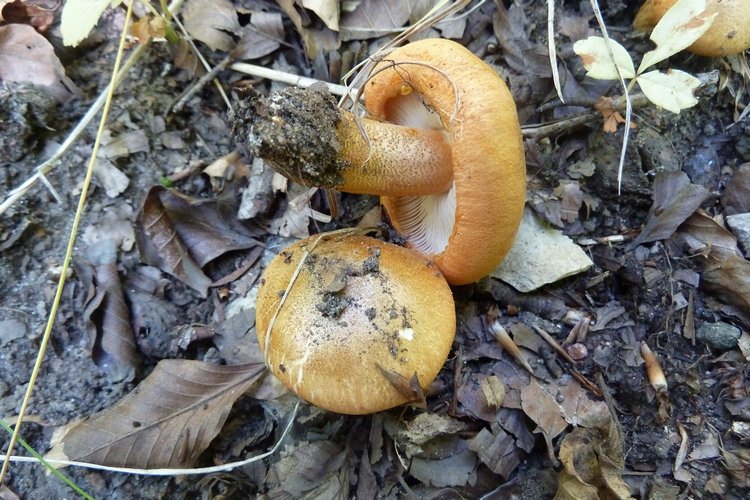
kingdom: Fungi
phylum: Basidiomycota
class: Agaricomycetes
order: Agaricales
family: Tricholomataceae
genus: Tricholoma
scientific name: Tricholoma aurantium
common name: orangegul ridderhat
